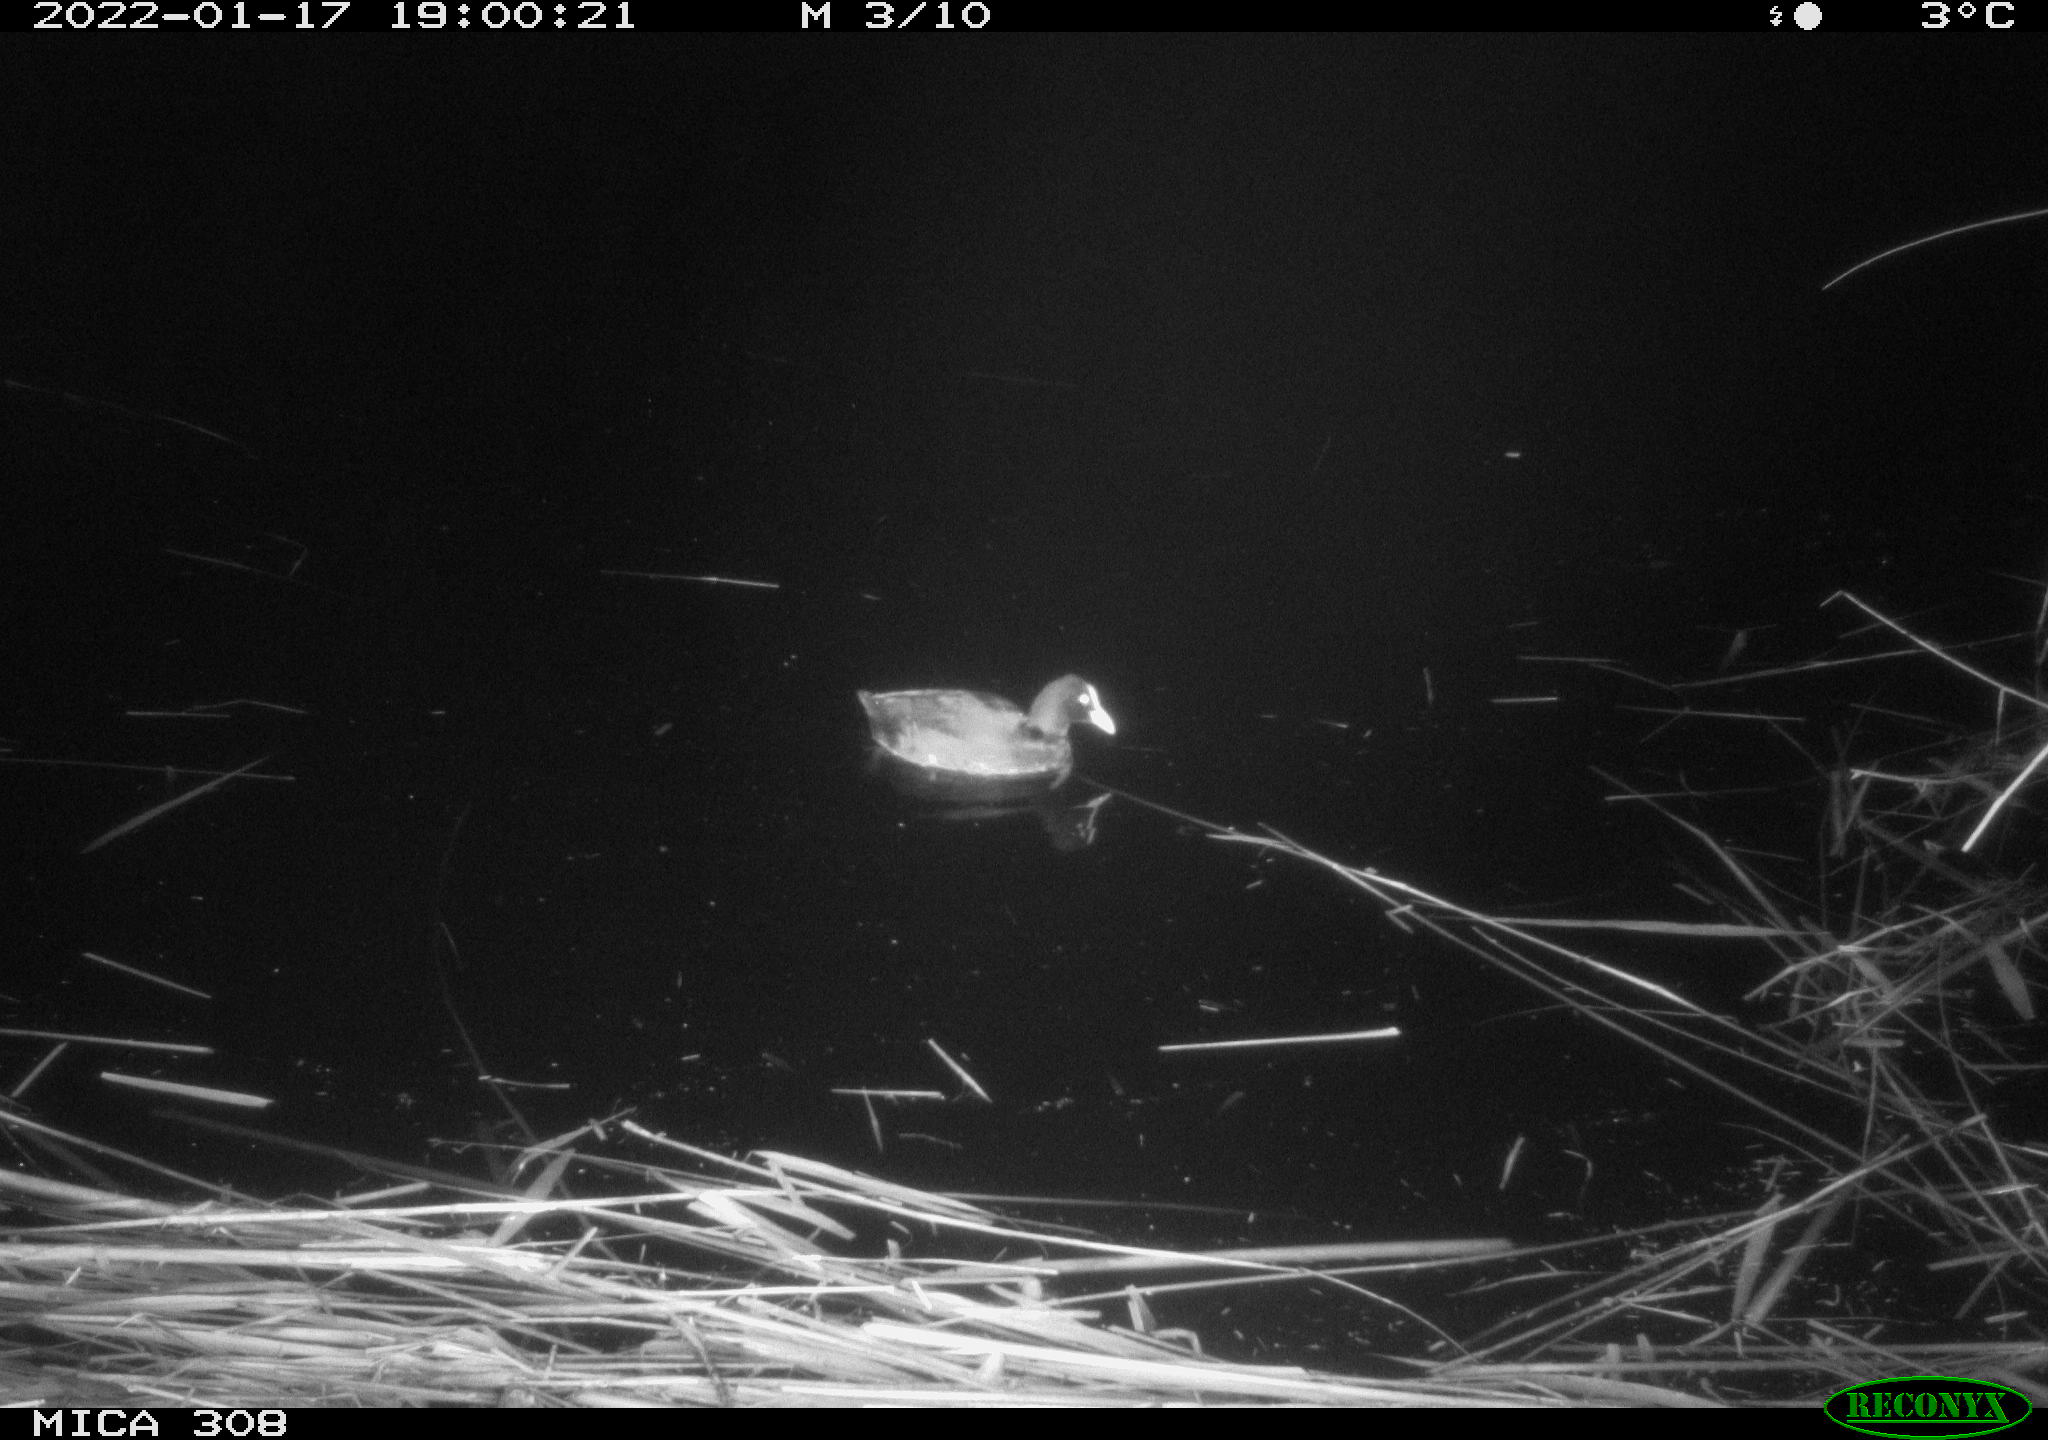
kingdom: Animalia
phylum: Chordata
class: Aves
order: Anseriformes
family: Anatidae
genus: Anas
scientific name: Anas
